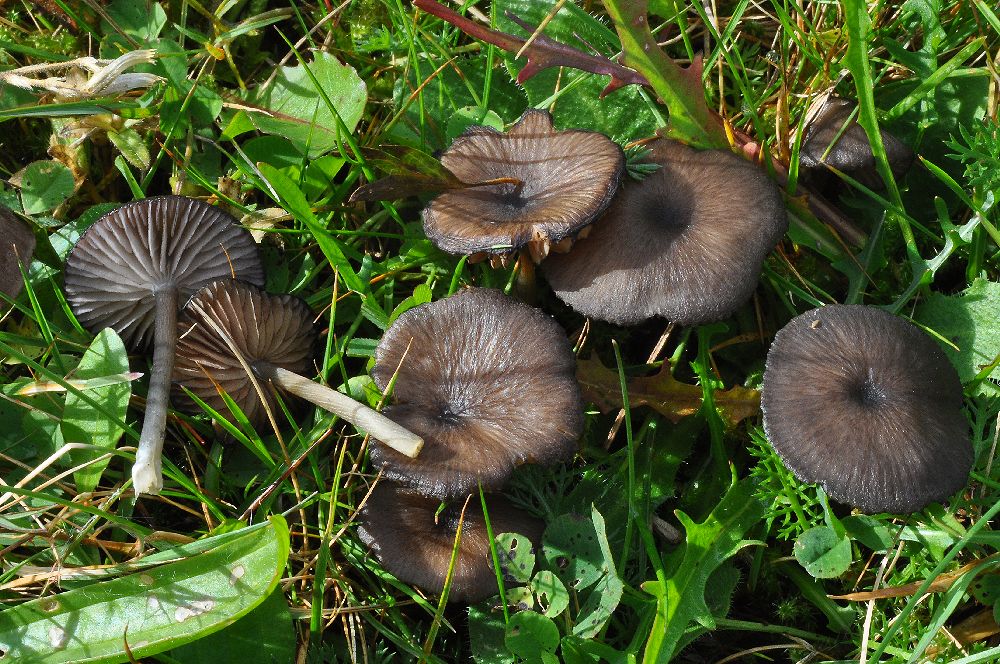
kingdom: Fungi
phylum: Basidiomycota
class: Agaricomycetes
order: Agaricales
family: Entolomataceae
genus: Entoloma
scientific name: Entoloma
